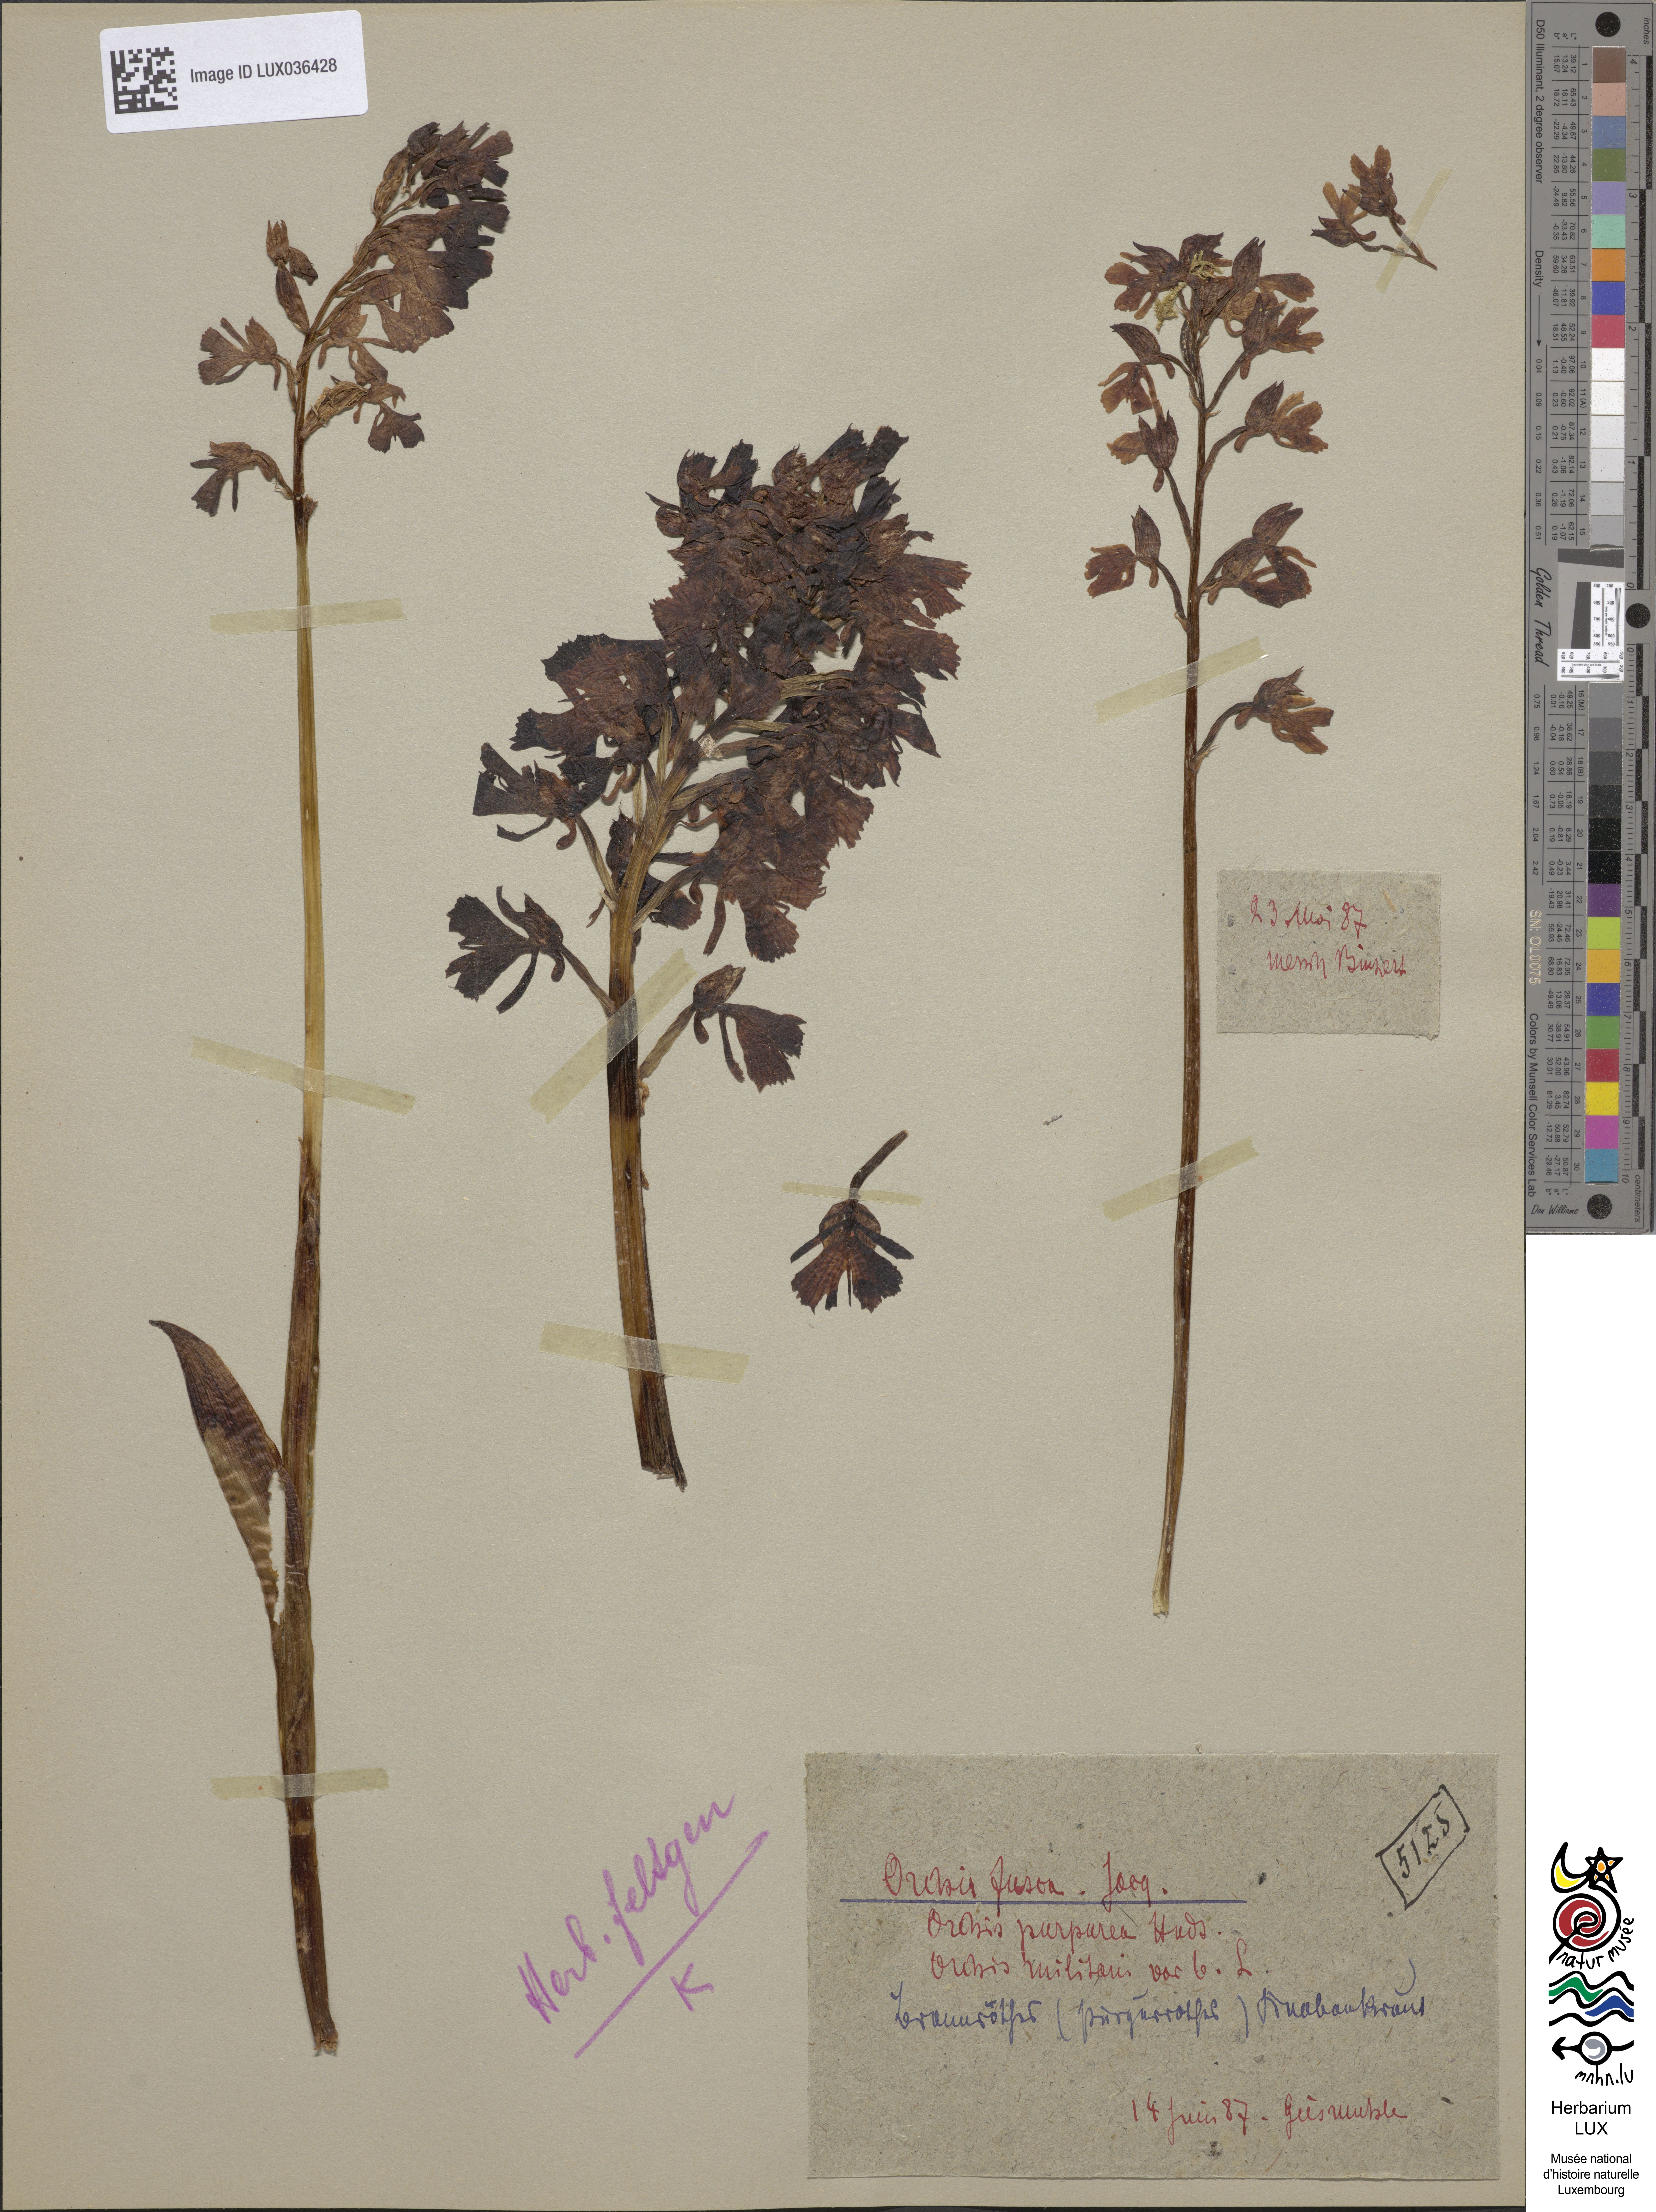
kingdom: Plantae
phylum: Tracheophyta
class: Liliopsida
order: Asparagales
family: Orchidaceae
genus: Orchis
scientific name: Orchis purpurea
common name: Lady orchid
